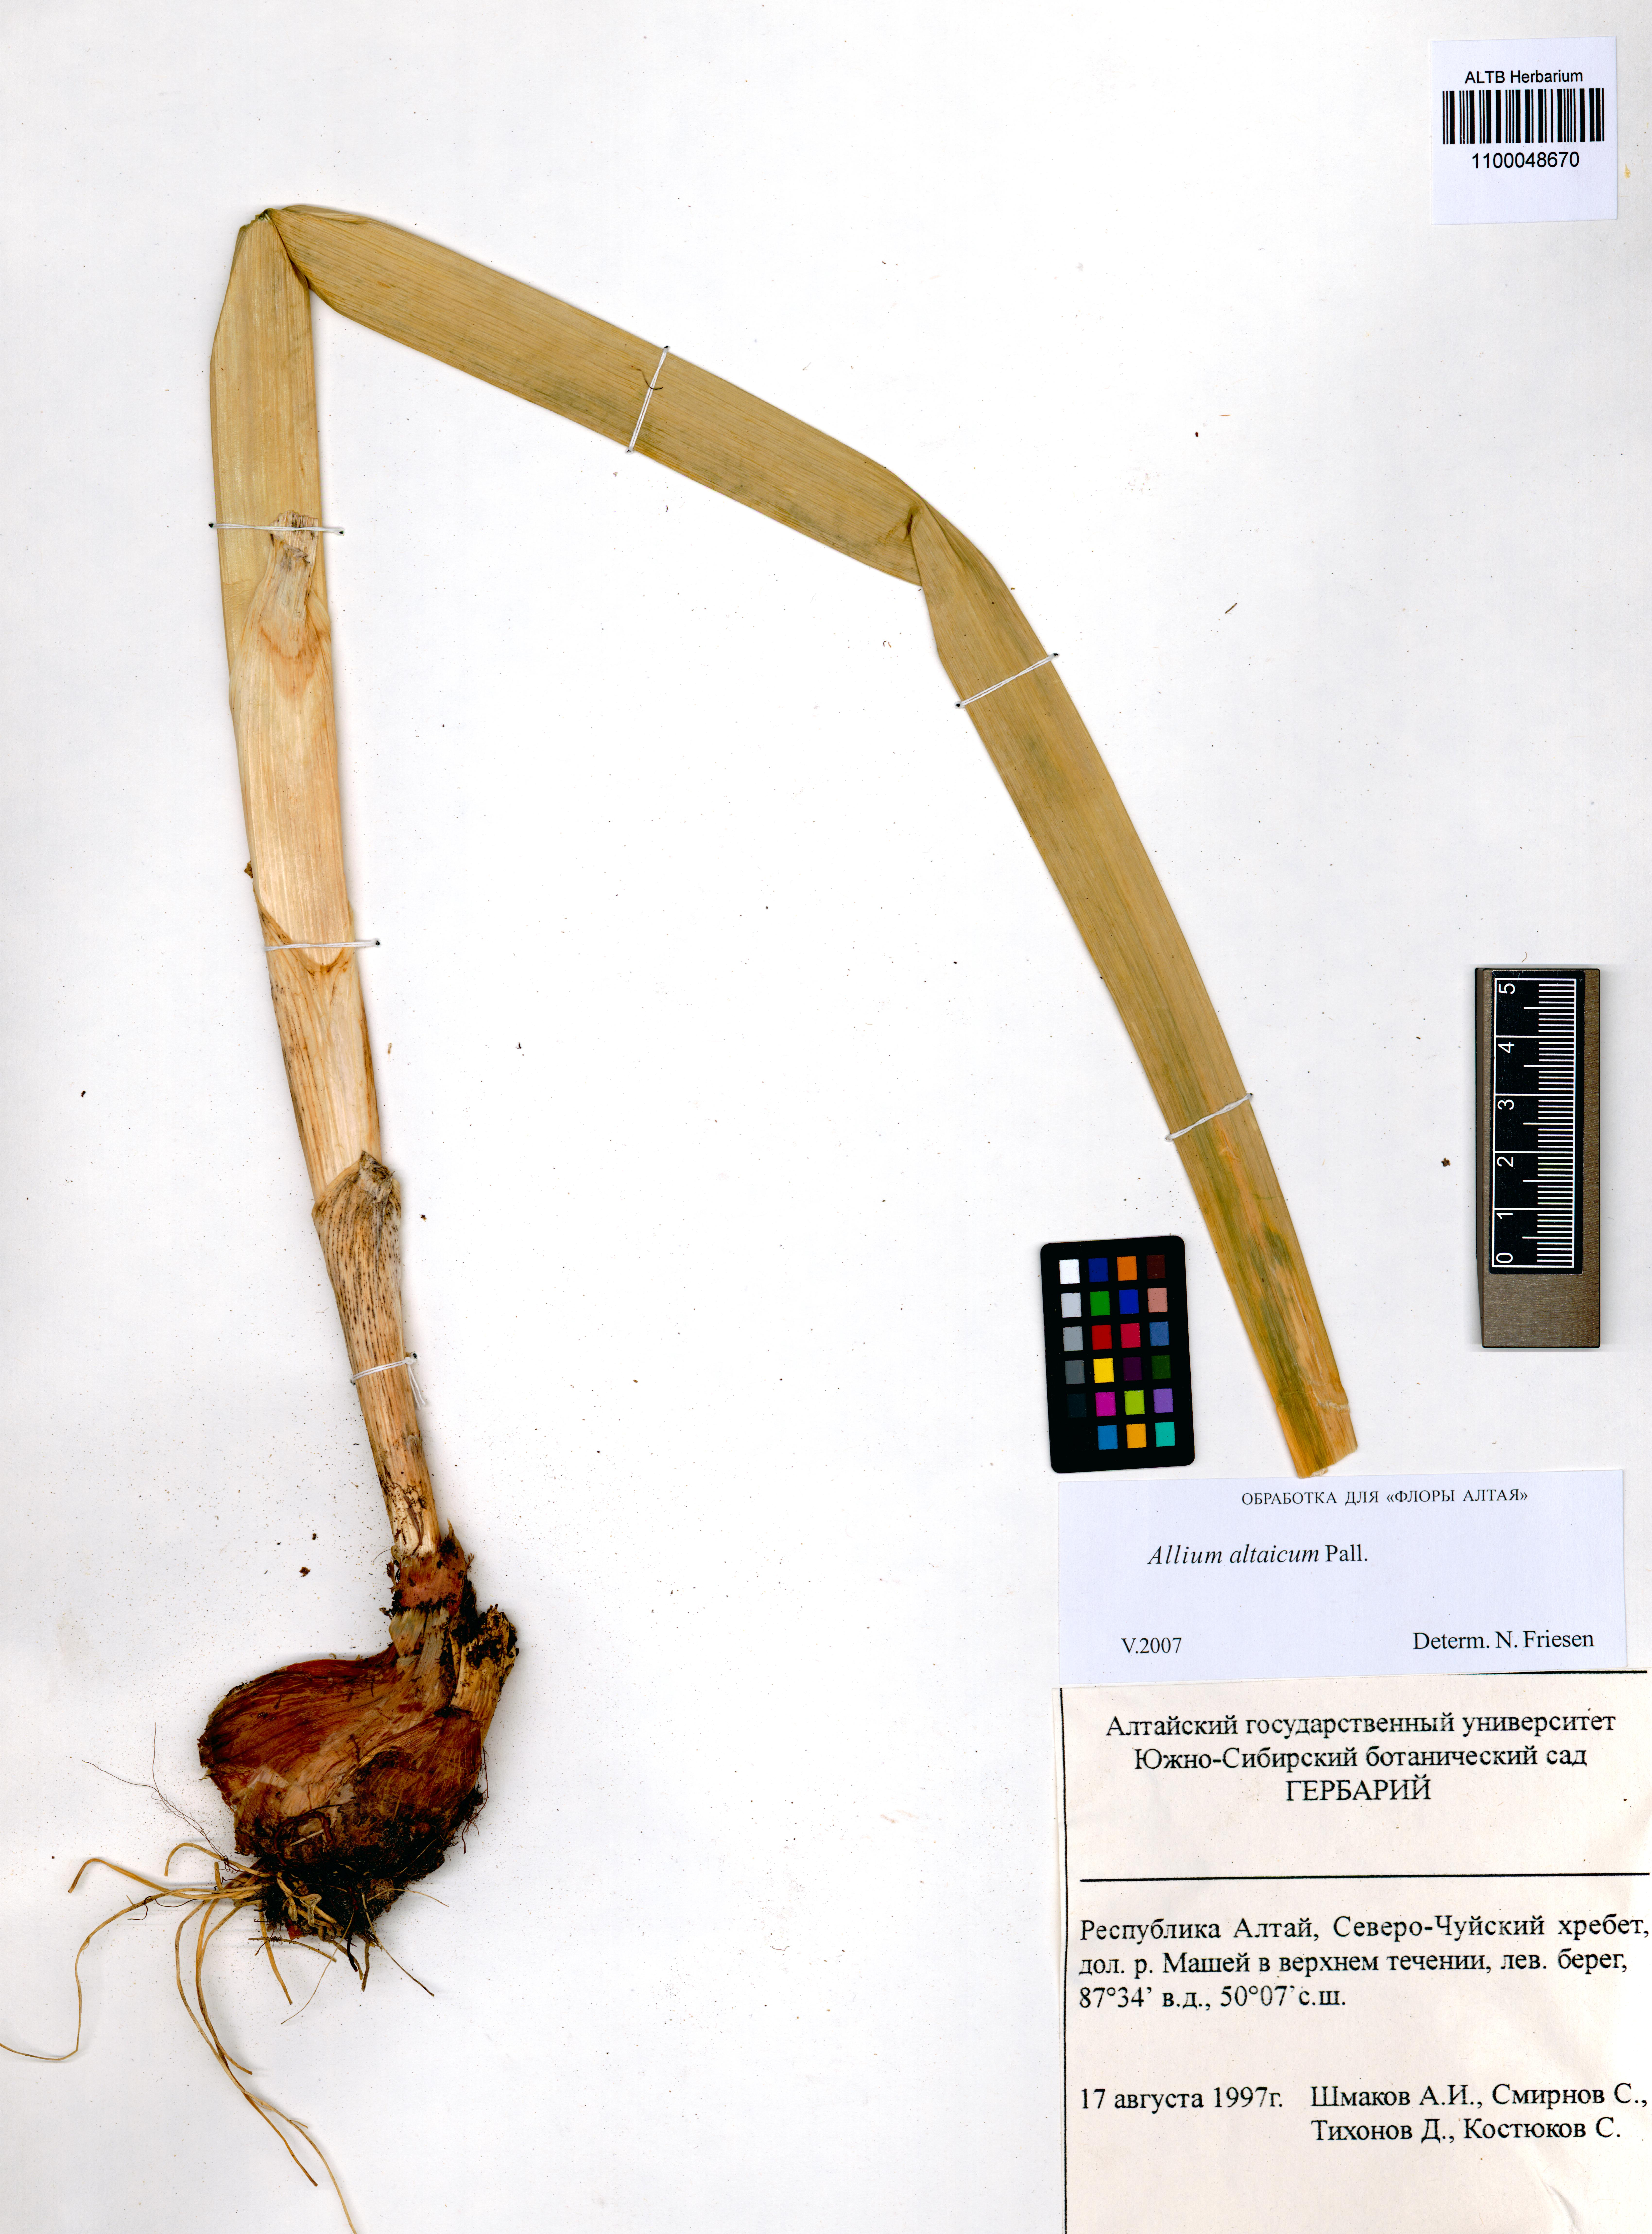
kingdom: Plantae
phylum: Tracheophyta
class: Liliopsida
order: Asparagales
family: Amaryllidaceae
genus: Allium
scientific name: Allium altaicum
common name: Altai onion
